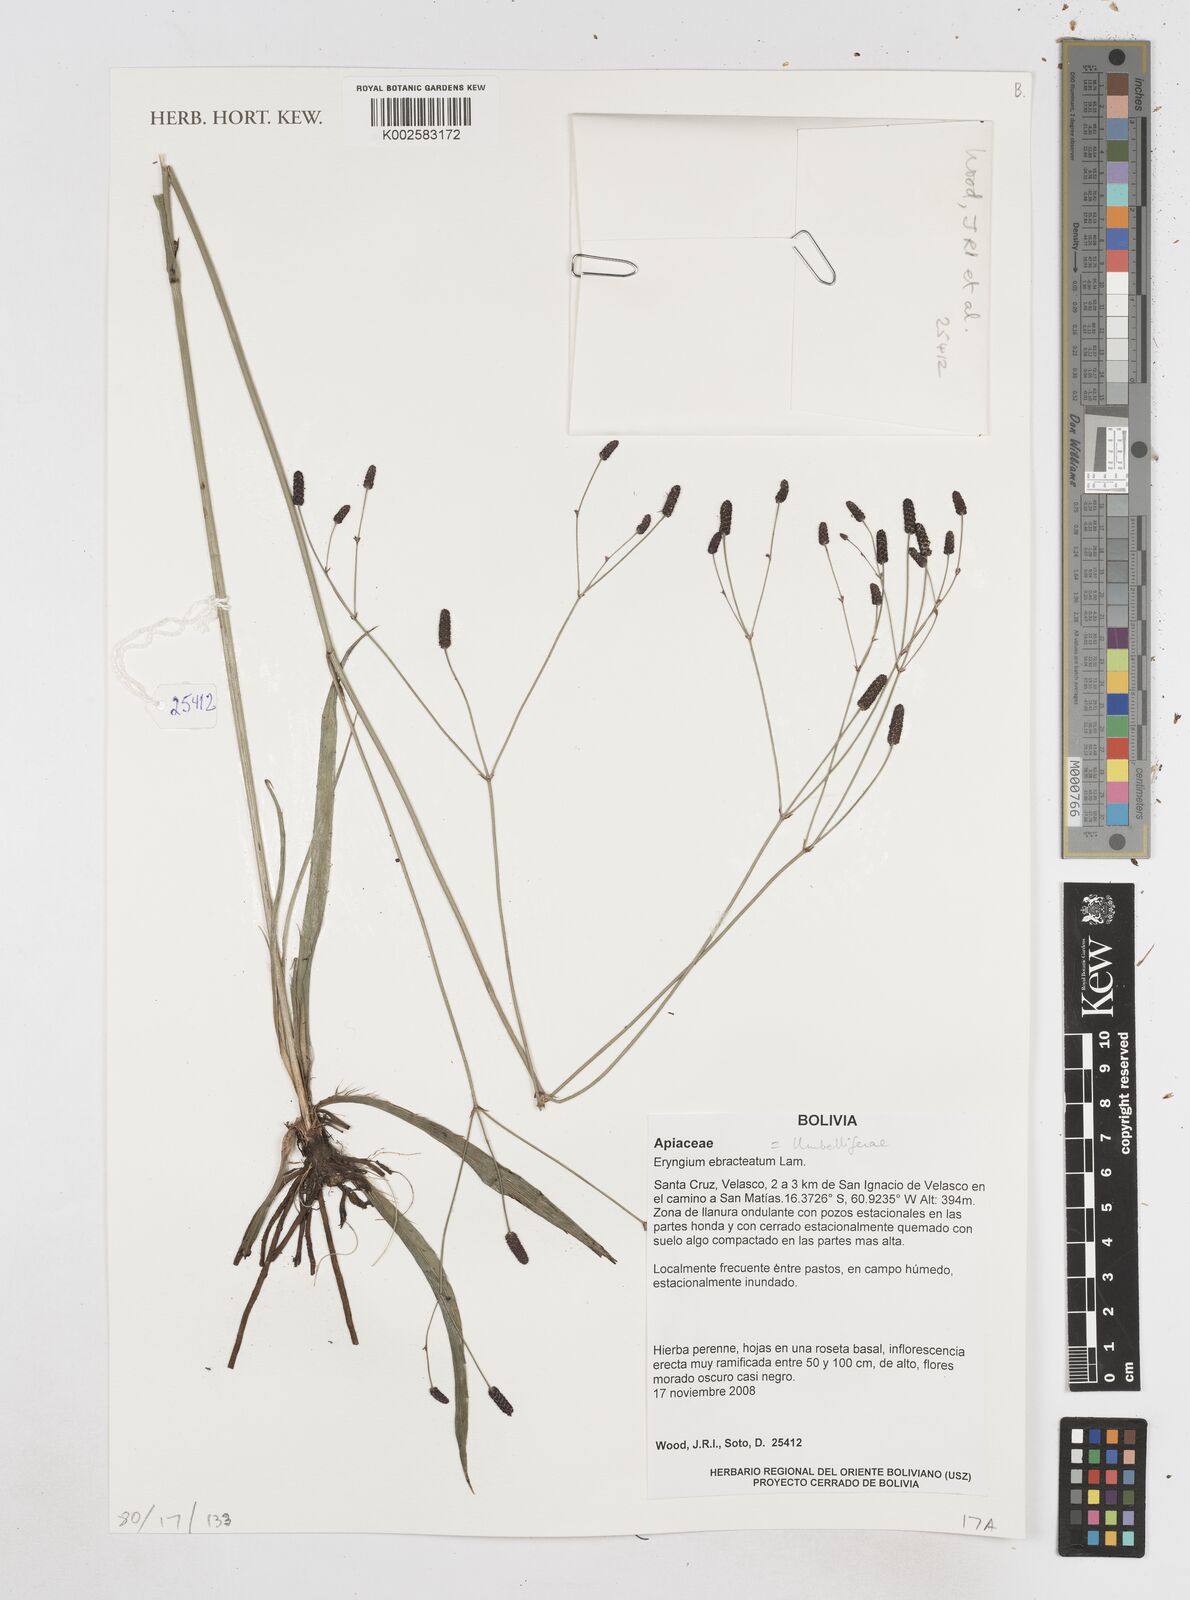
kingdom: Plantae
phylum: Tracheophyta
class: Magnoliopsida
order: Apiales
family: Apiaceae
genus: Eryngium
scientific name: Eryngium ebracteatum
